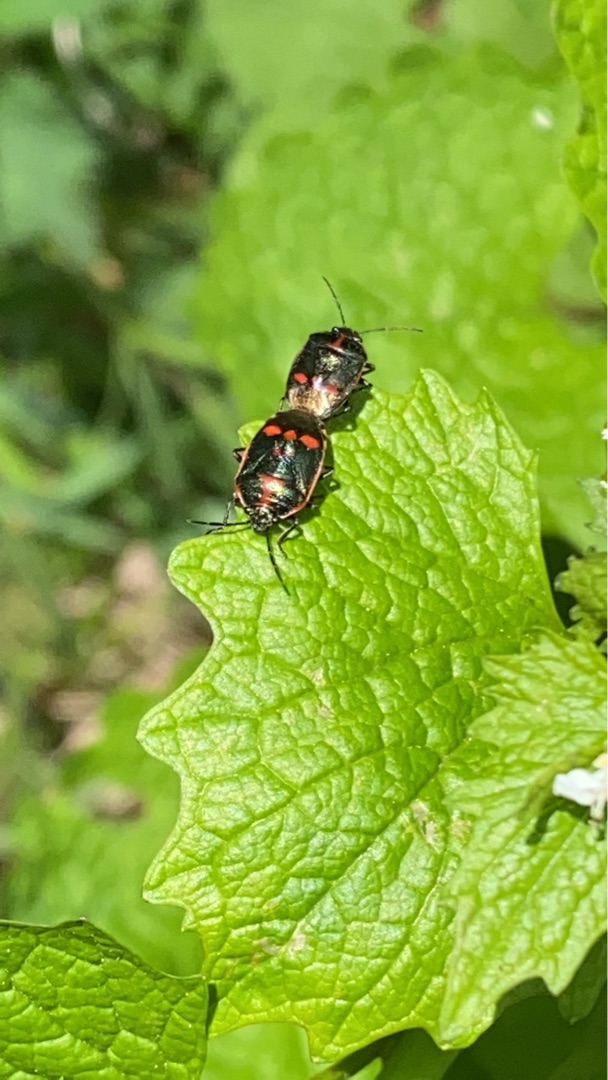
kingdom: Animalia
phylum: Arthropoda
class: Insecta
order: Hemiptera
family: Pentatomidae
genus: Eurydema
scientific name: Eurydema oleracea
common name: Almindelig kåltæge
